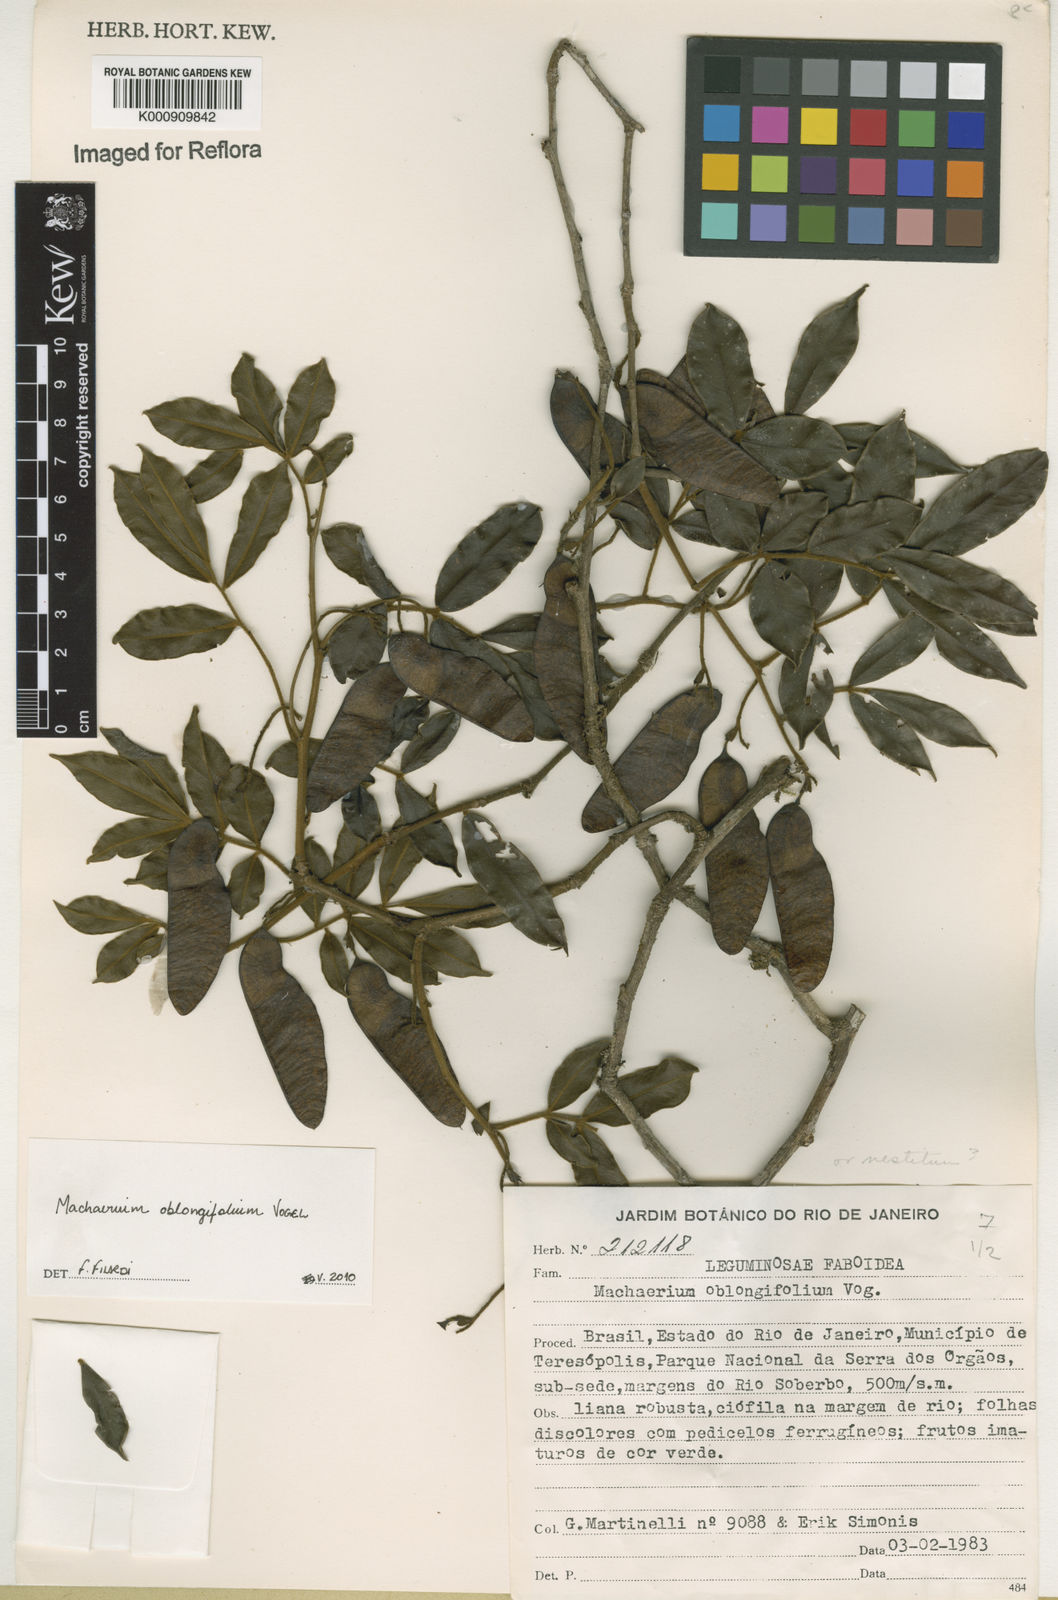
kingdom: Plantae
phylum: Tracheophyta
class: Magnoliopsida
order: Fabales
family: Fabaceae
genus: Machaerium
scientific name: Machaerium oblongifolium
